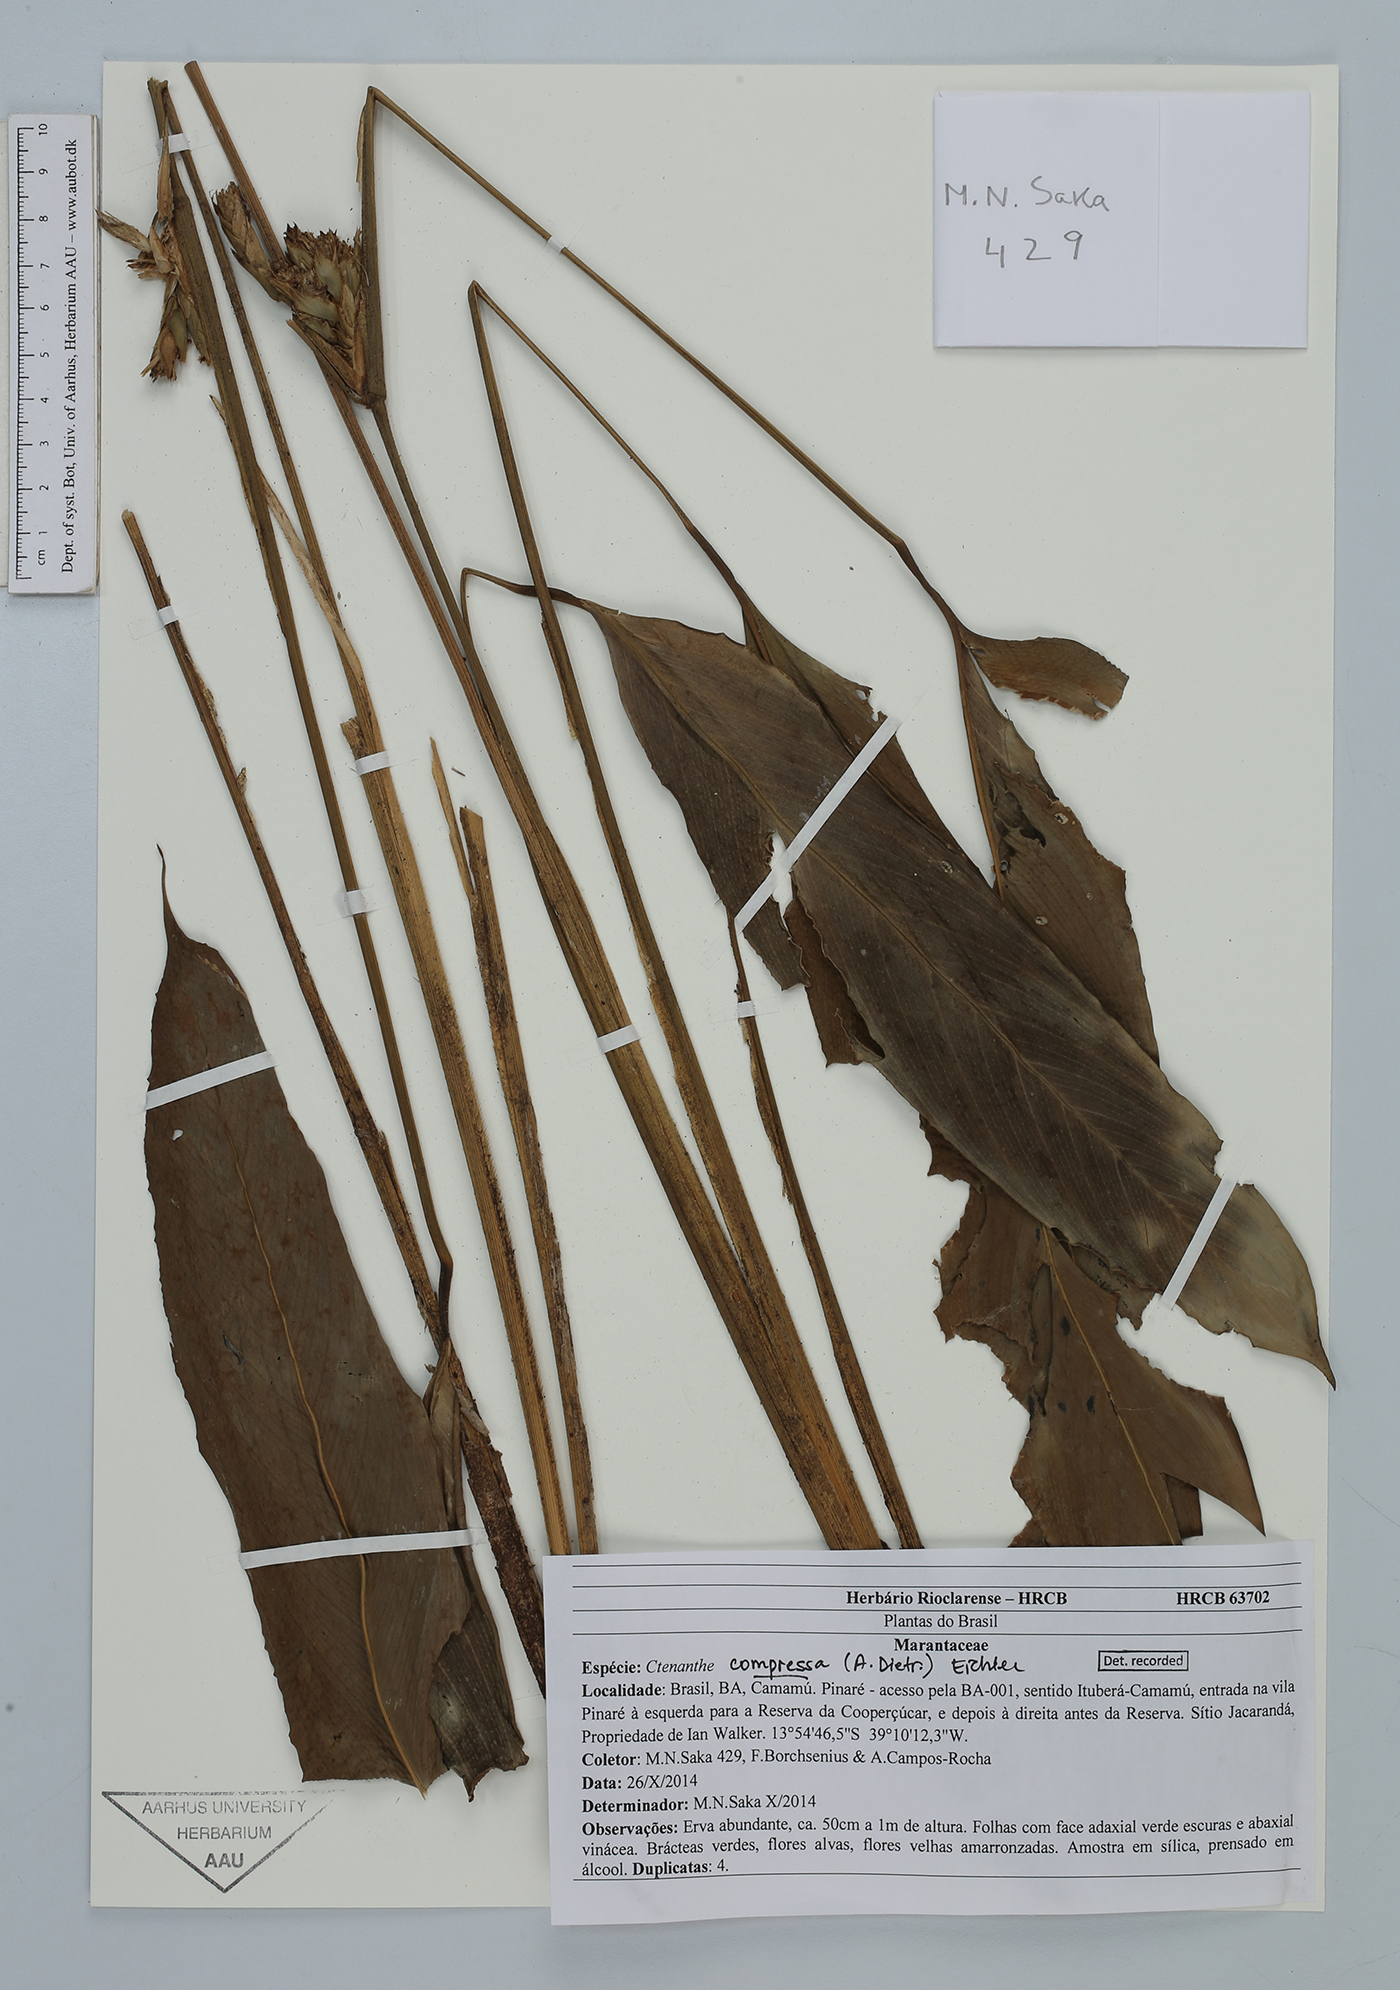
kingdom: Plantae
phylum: Tracheophyta
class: Liliopsida
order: Zingiberales
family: Marantaceae
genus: Ctenanthe
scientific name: Ctenanthe compressa
